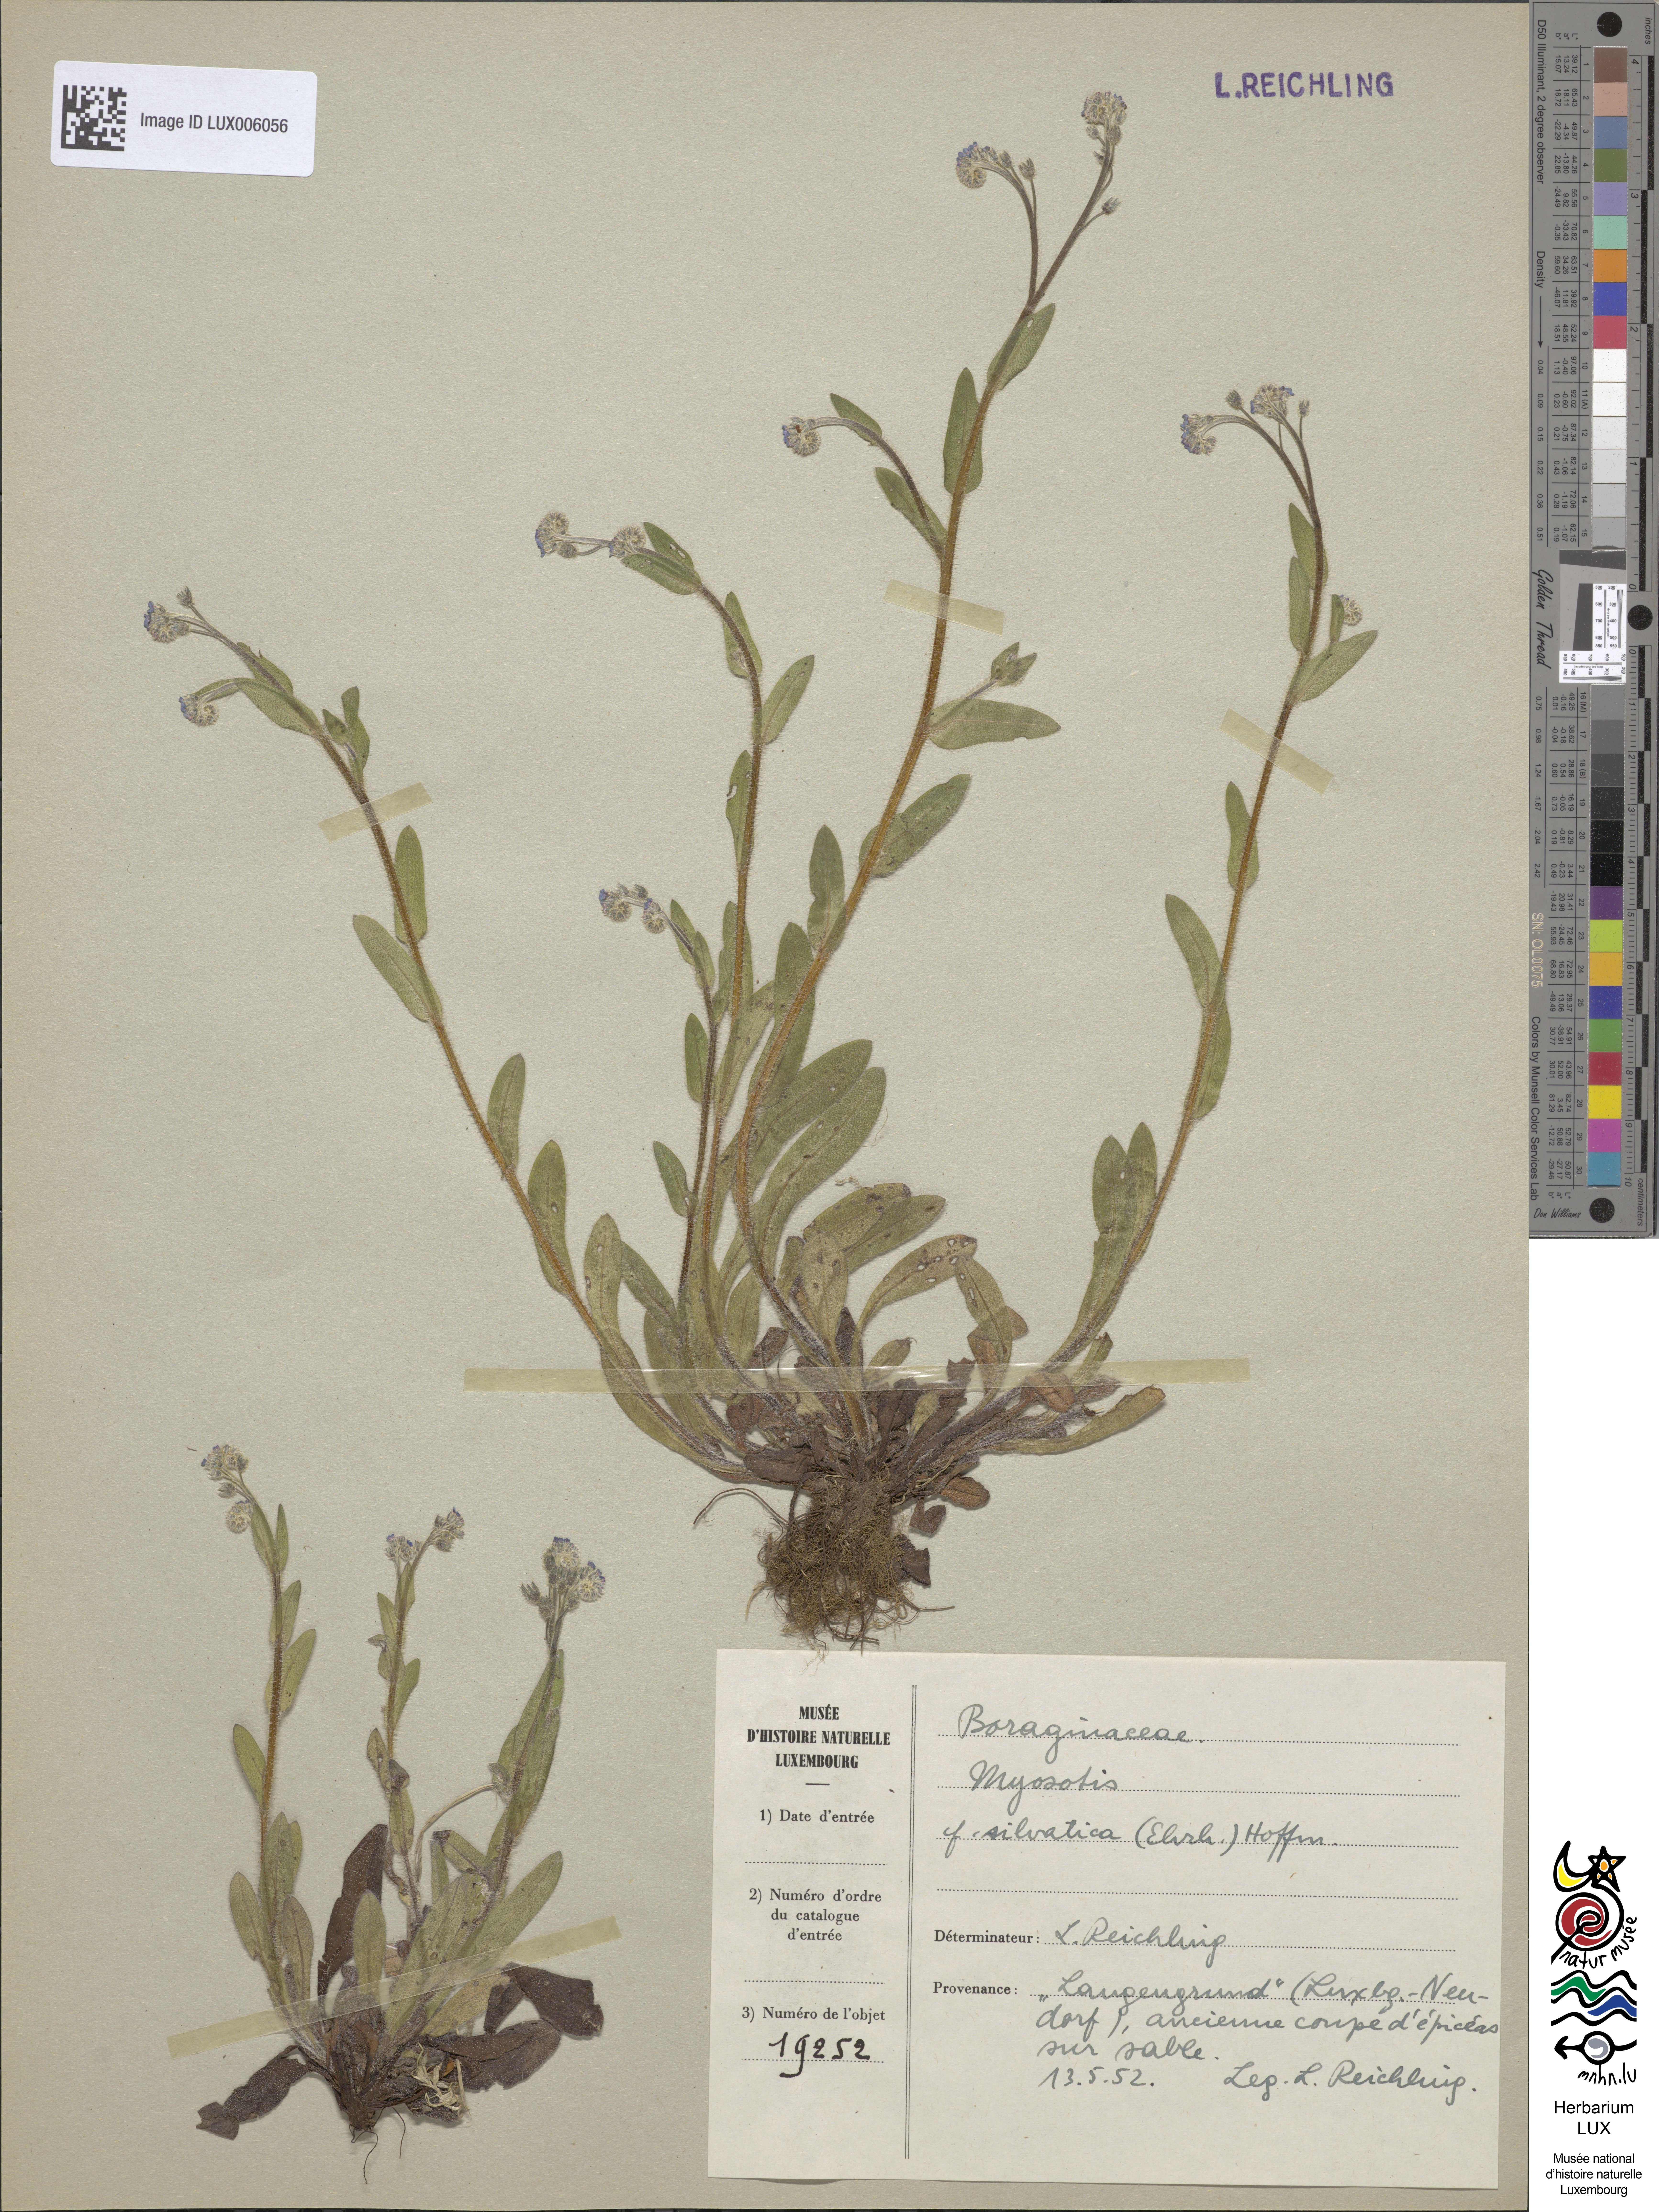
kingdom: Plantae
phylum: Tracheophyta
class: Magnoliopsida
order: Boraginales
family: Boraginaceae
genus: Myosotis
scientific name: Myosotis sylvatica
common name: Wood forget-me-not
